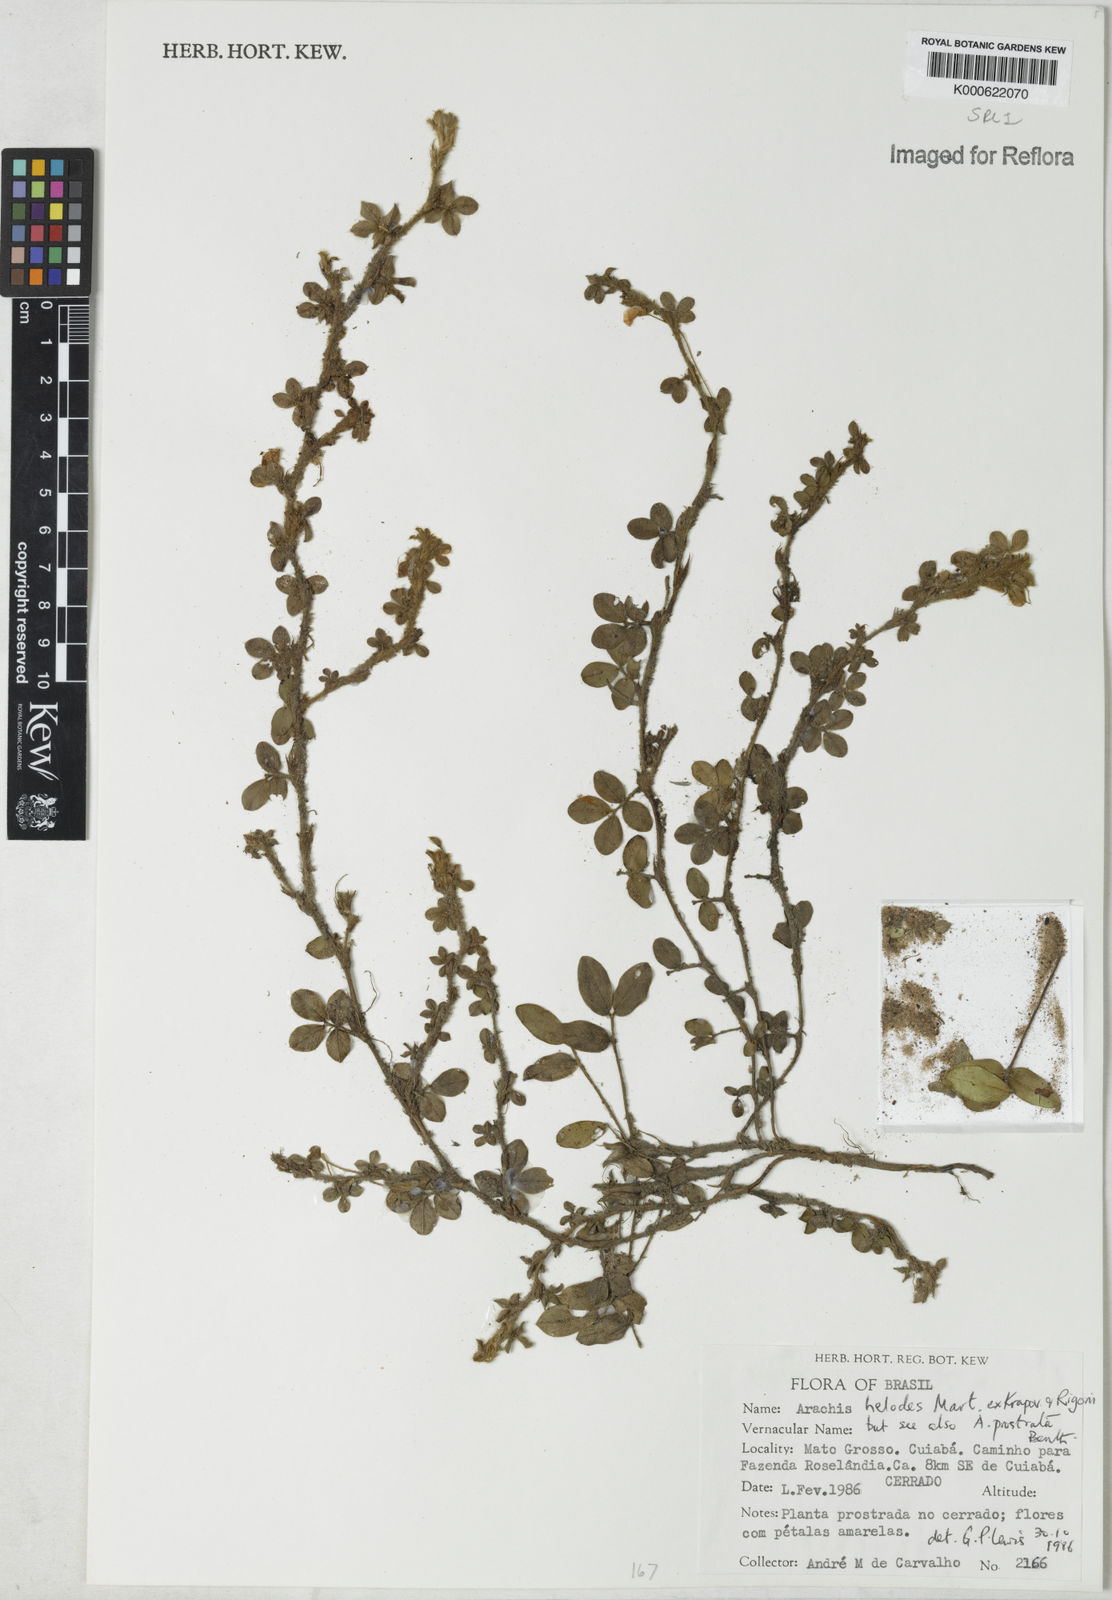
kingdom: Plantae
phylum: Tracheophyta
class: Magnoliopsida
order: Fabales
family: Fabaceae
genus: Arachis
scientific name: Arachis helodes
